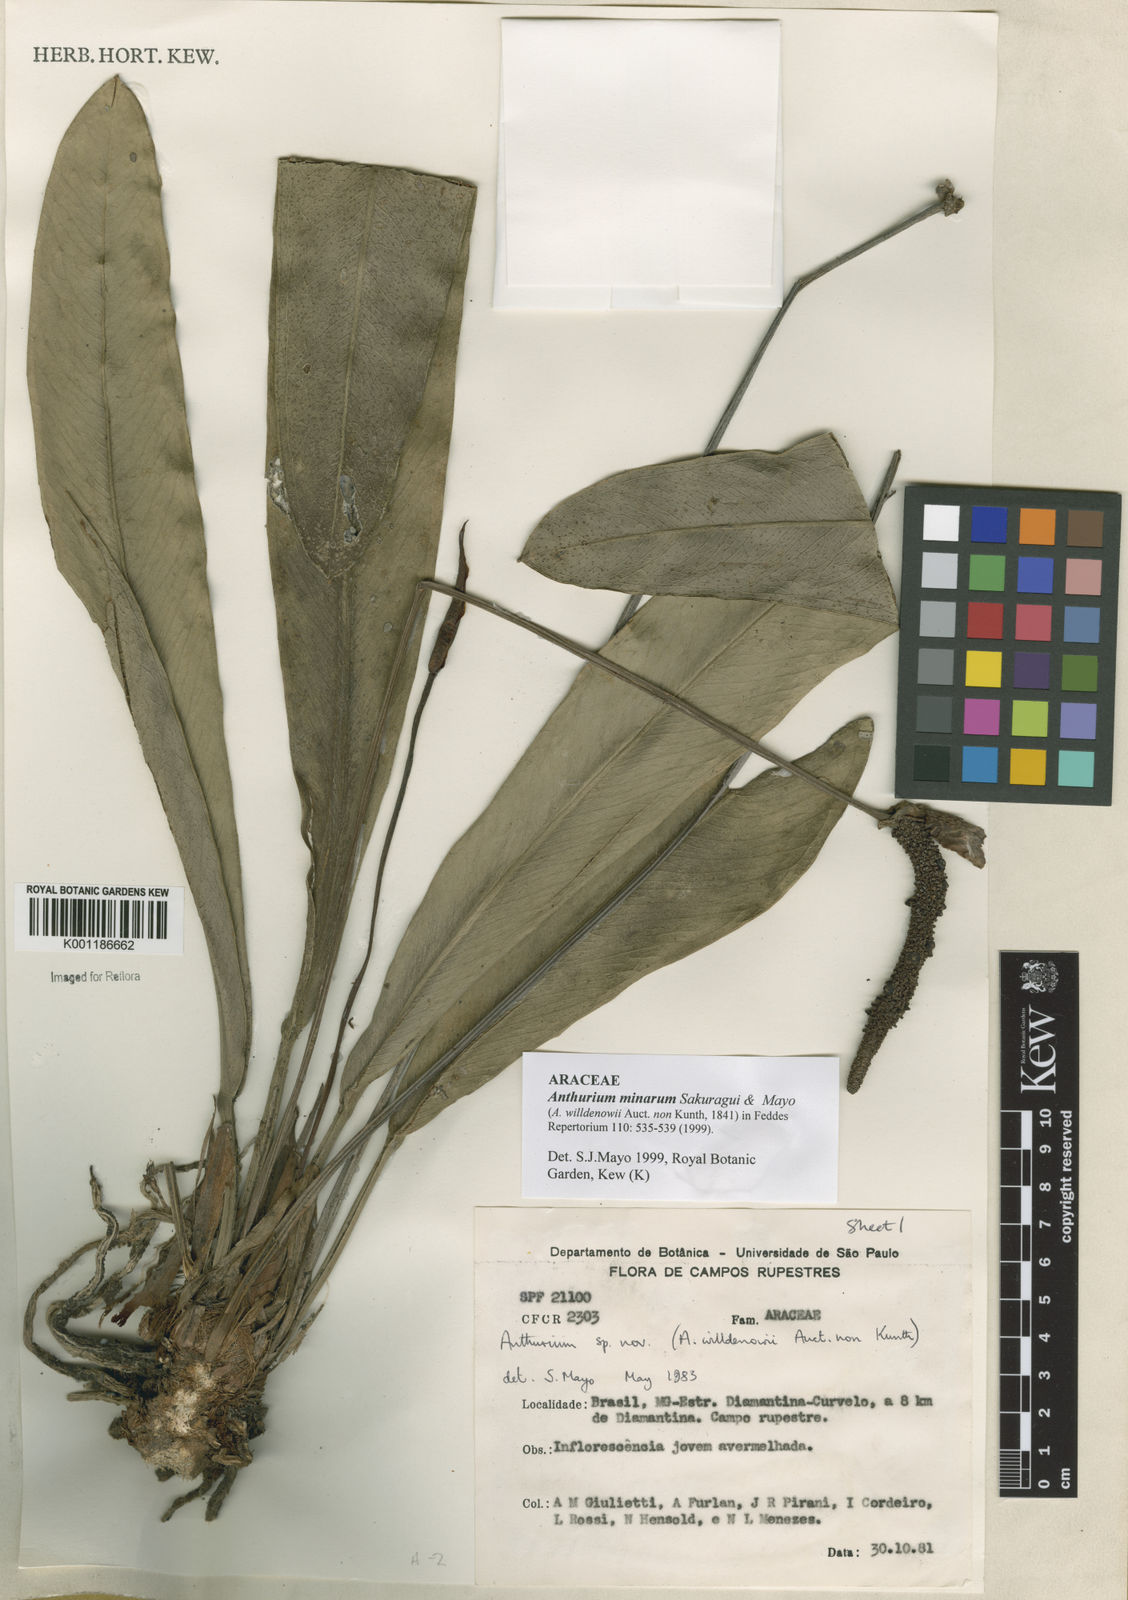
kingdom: Plantae
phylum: Tracheophyta
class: Liliopsida
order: Alismatales
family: Araceae
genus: Anthurium
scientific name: Anthurium minarum
